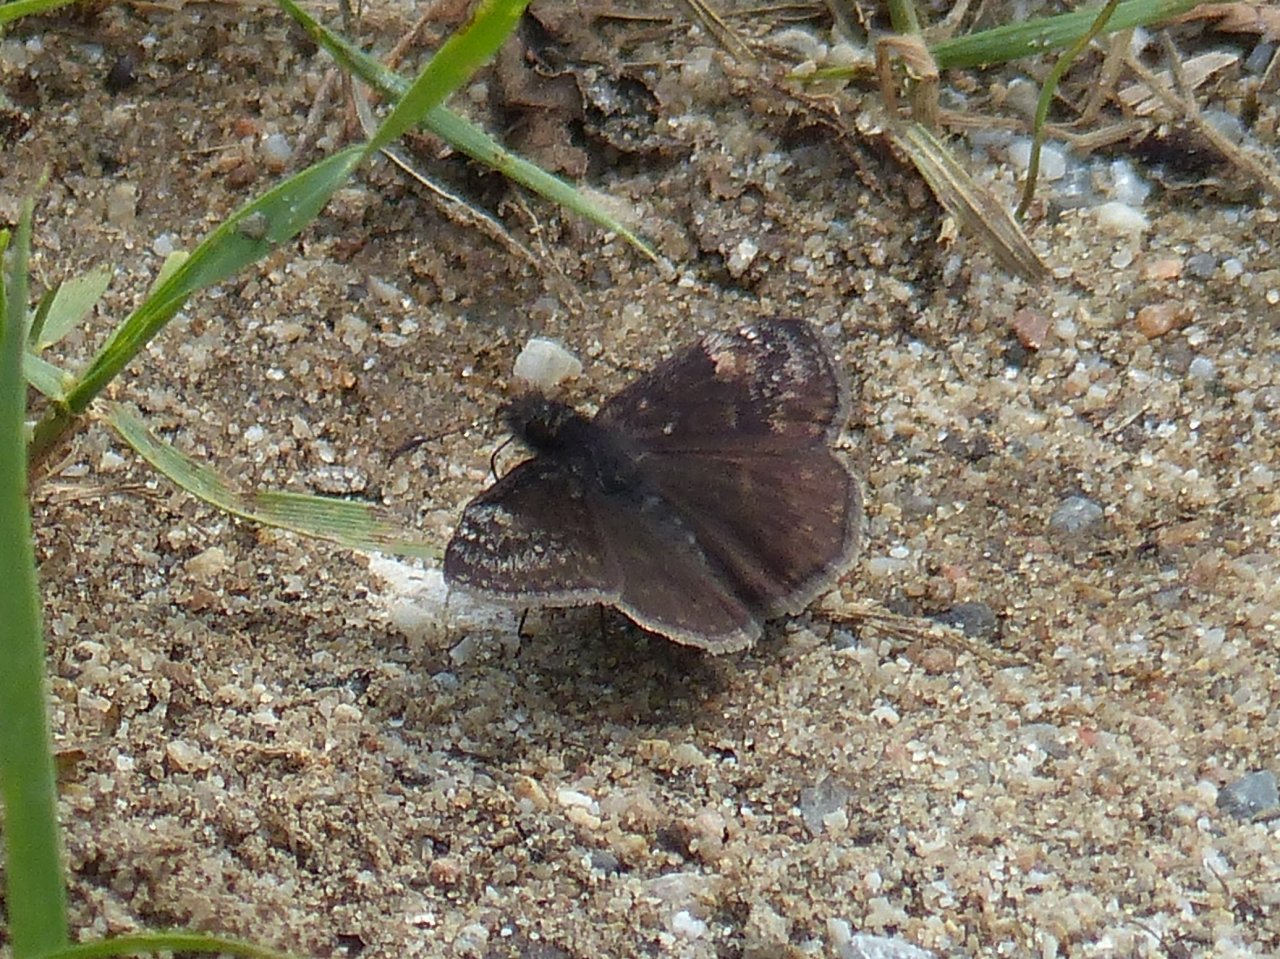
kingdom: Animalia
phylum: Arthropoda
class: Insecta
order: Lepidoptera
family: Hesperiidae
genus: Gesta
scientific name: Gesta
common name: Columbine Duskywing
